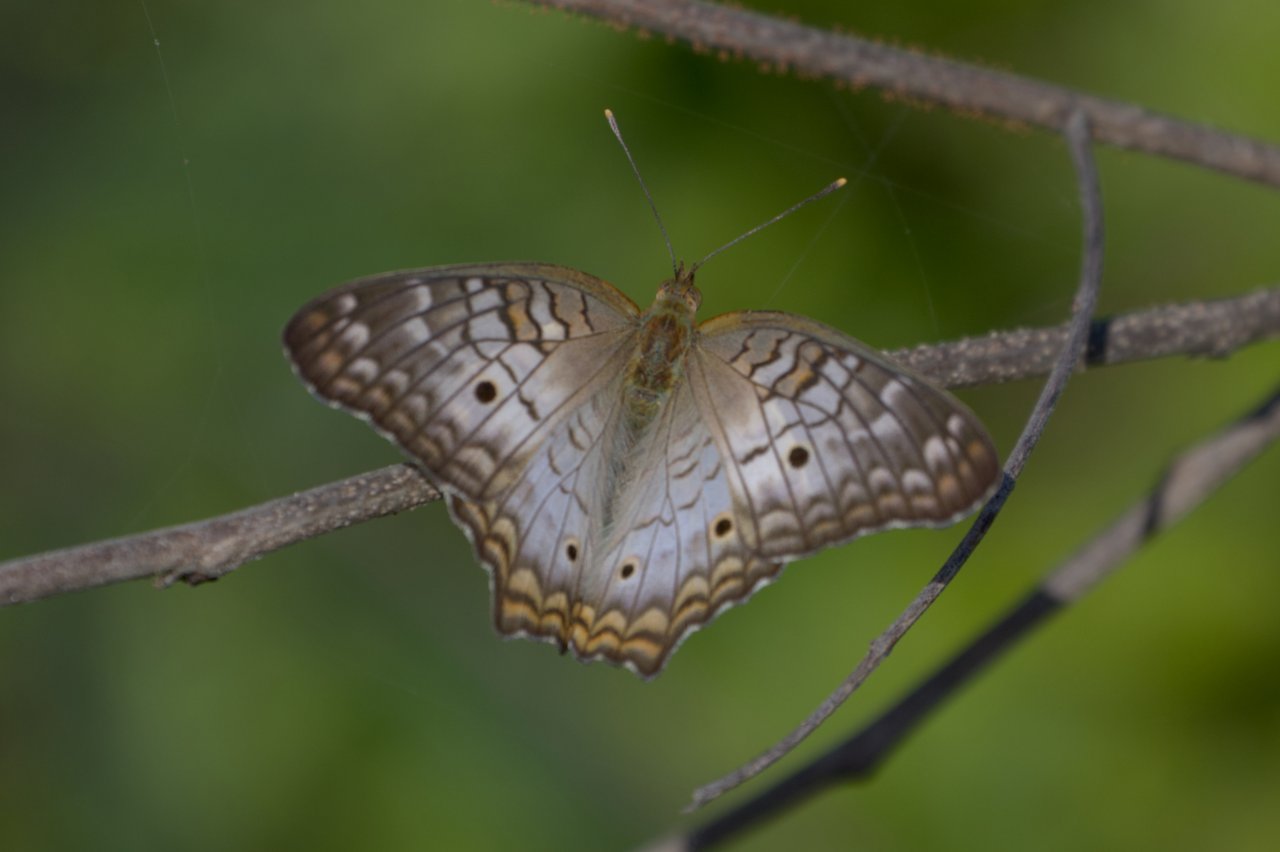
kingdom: Animalia
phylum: Arthropoda
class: Insecta
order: Lepidoptera
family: Nymphalidae
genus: Anartia
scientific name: Anartia jatrophae
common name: White Peacock
